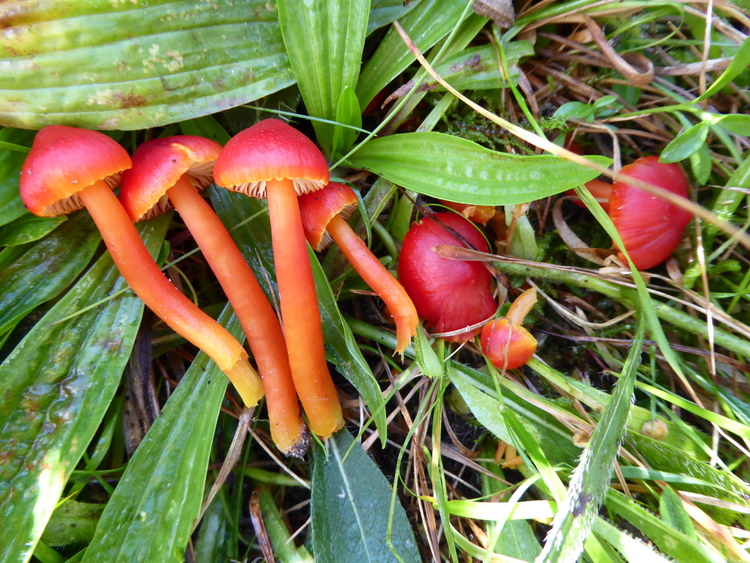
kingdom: Fungi
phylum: Basidiomycota
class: Agaricomycetes
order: Agaricales
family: Hygrophoraceae
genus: Hygrocybe
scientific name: Hygrocybe coccinea
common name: cinnober-vokshat
